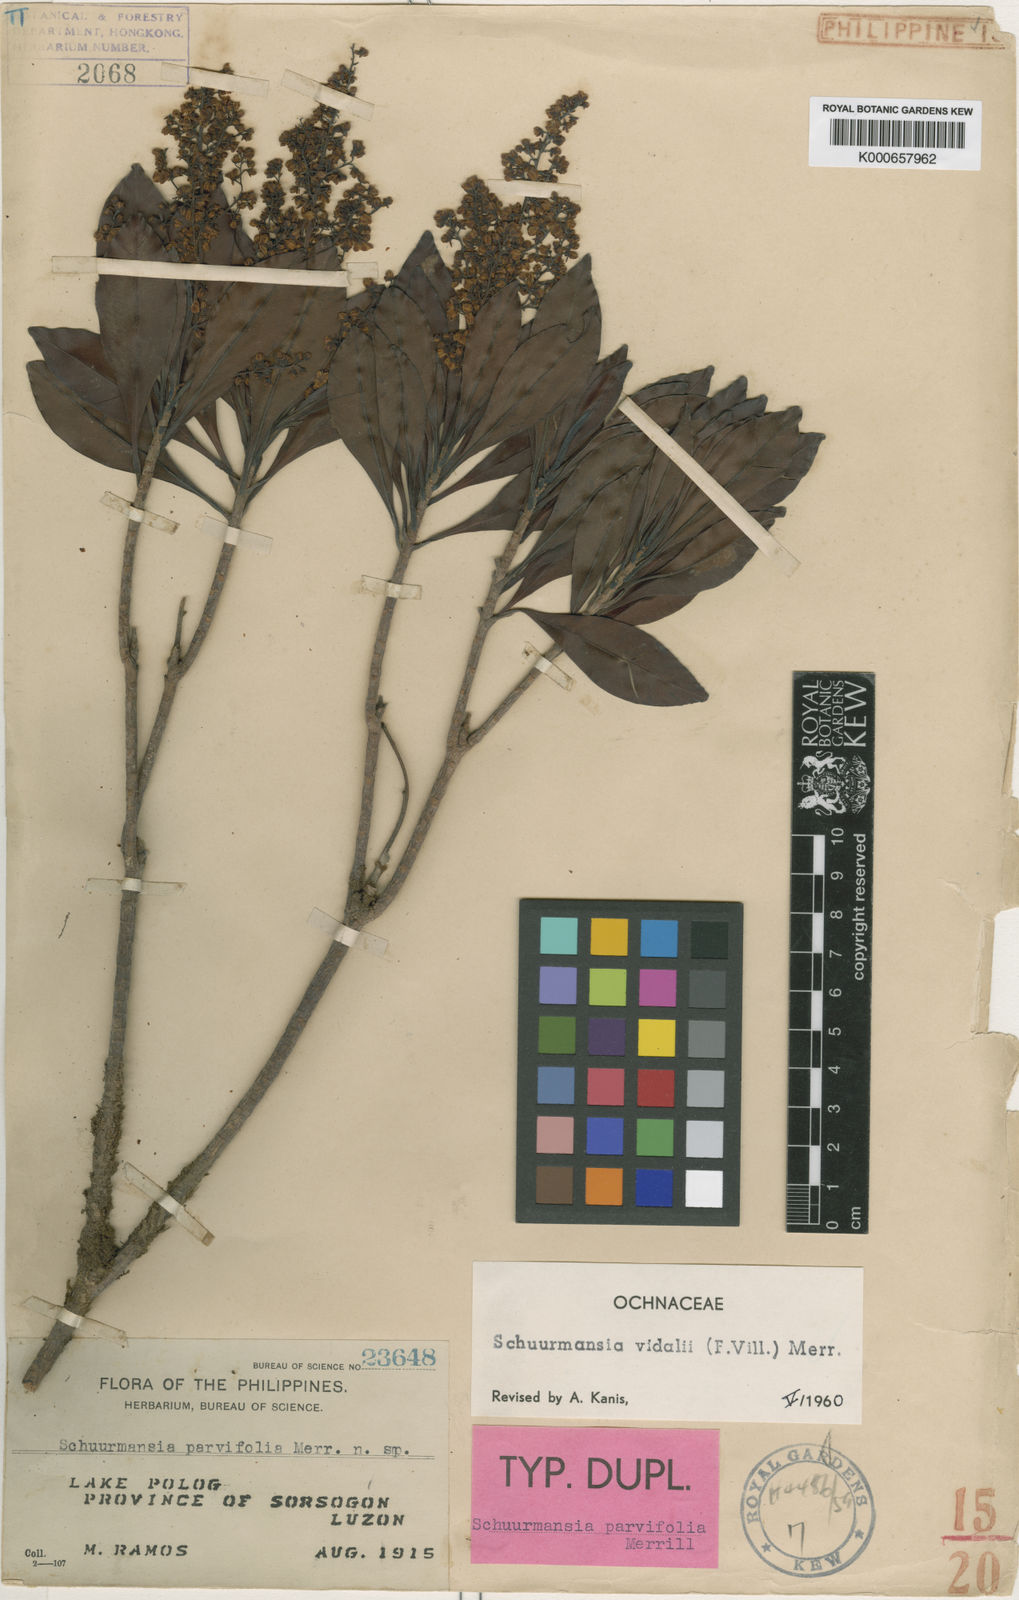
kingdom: Plantae
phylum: Tracheophyta
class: Magnoliopsida
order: Malpighiales
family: Ochnaceae
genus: Schuurmansia
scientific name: Schuurmansia vidalii
